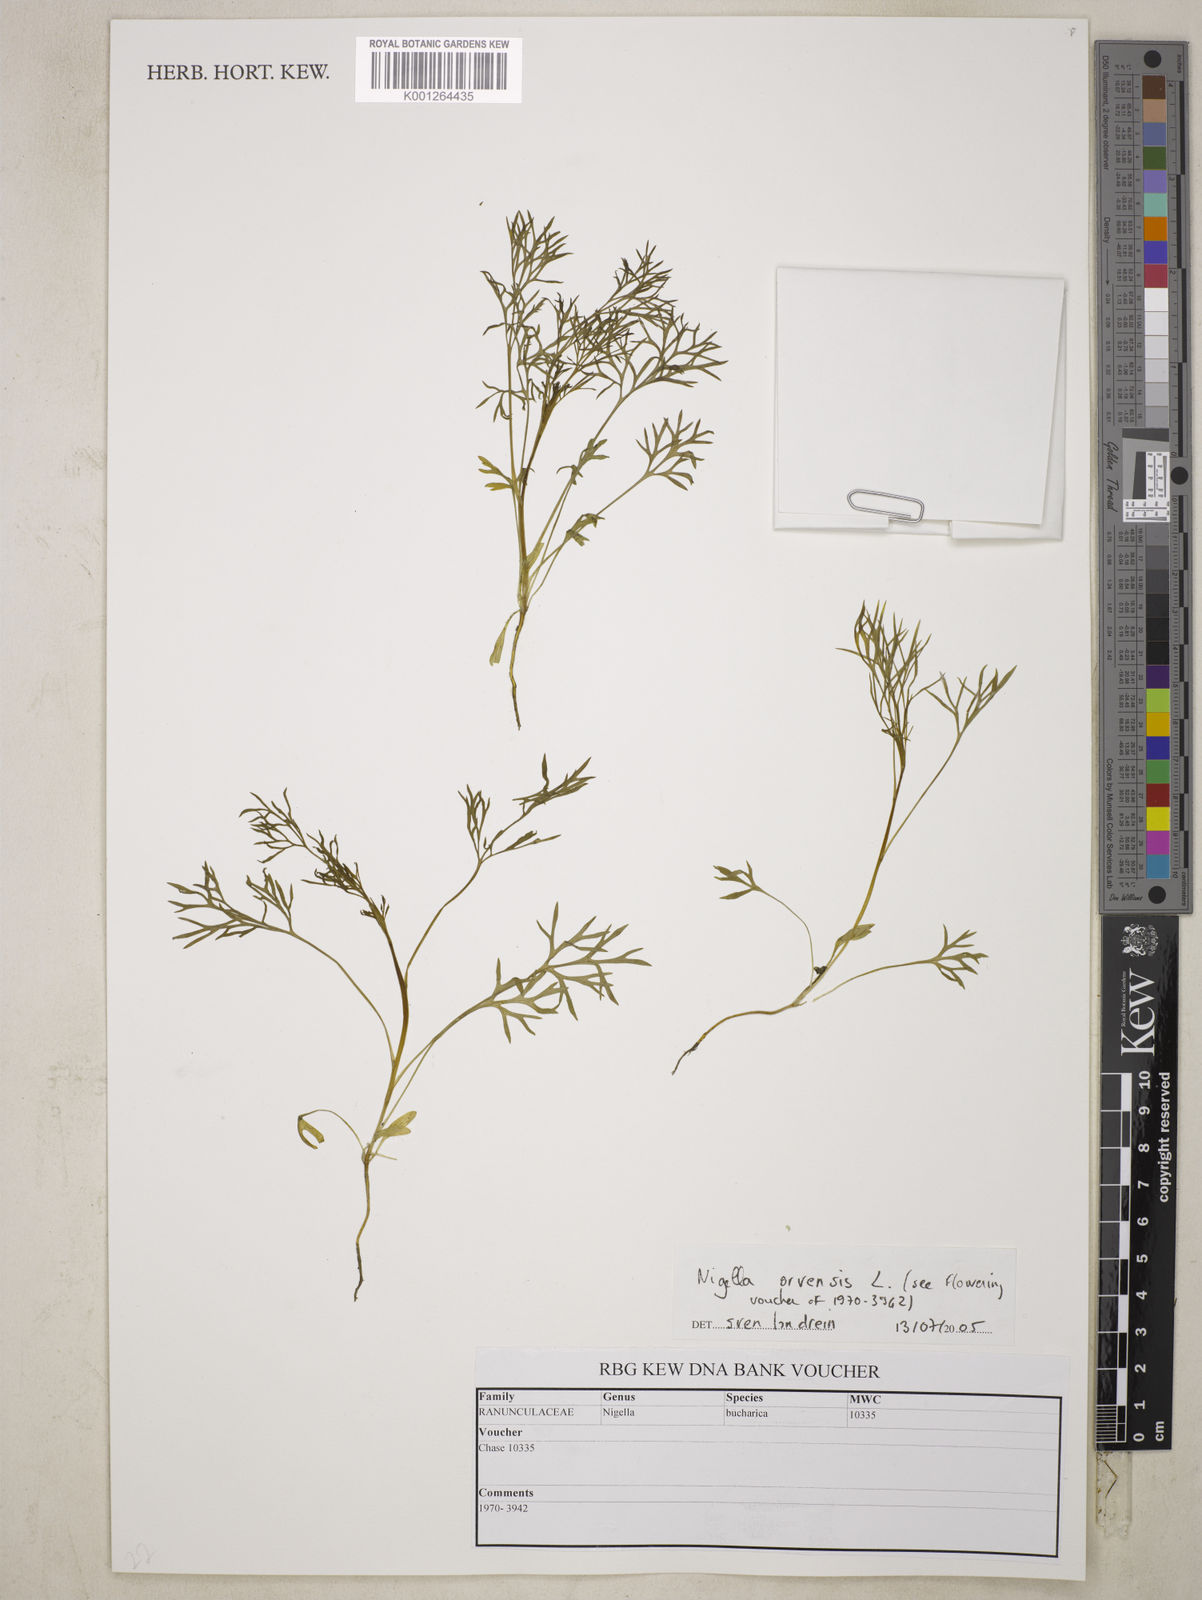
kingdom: Plantae
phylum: Tracheophyta
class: Magnoliopsida
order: Ranunculales
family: Ranunculaceae
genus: Nigella
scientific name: Nigella arvensis
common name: Wild fennel-flower
